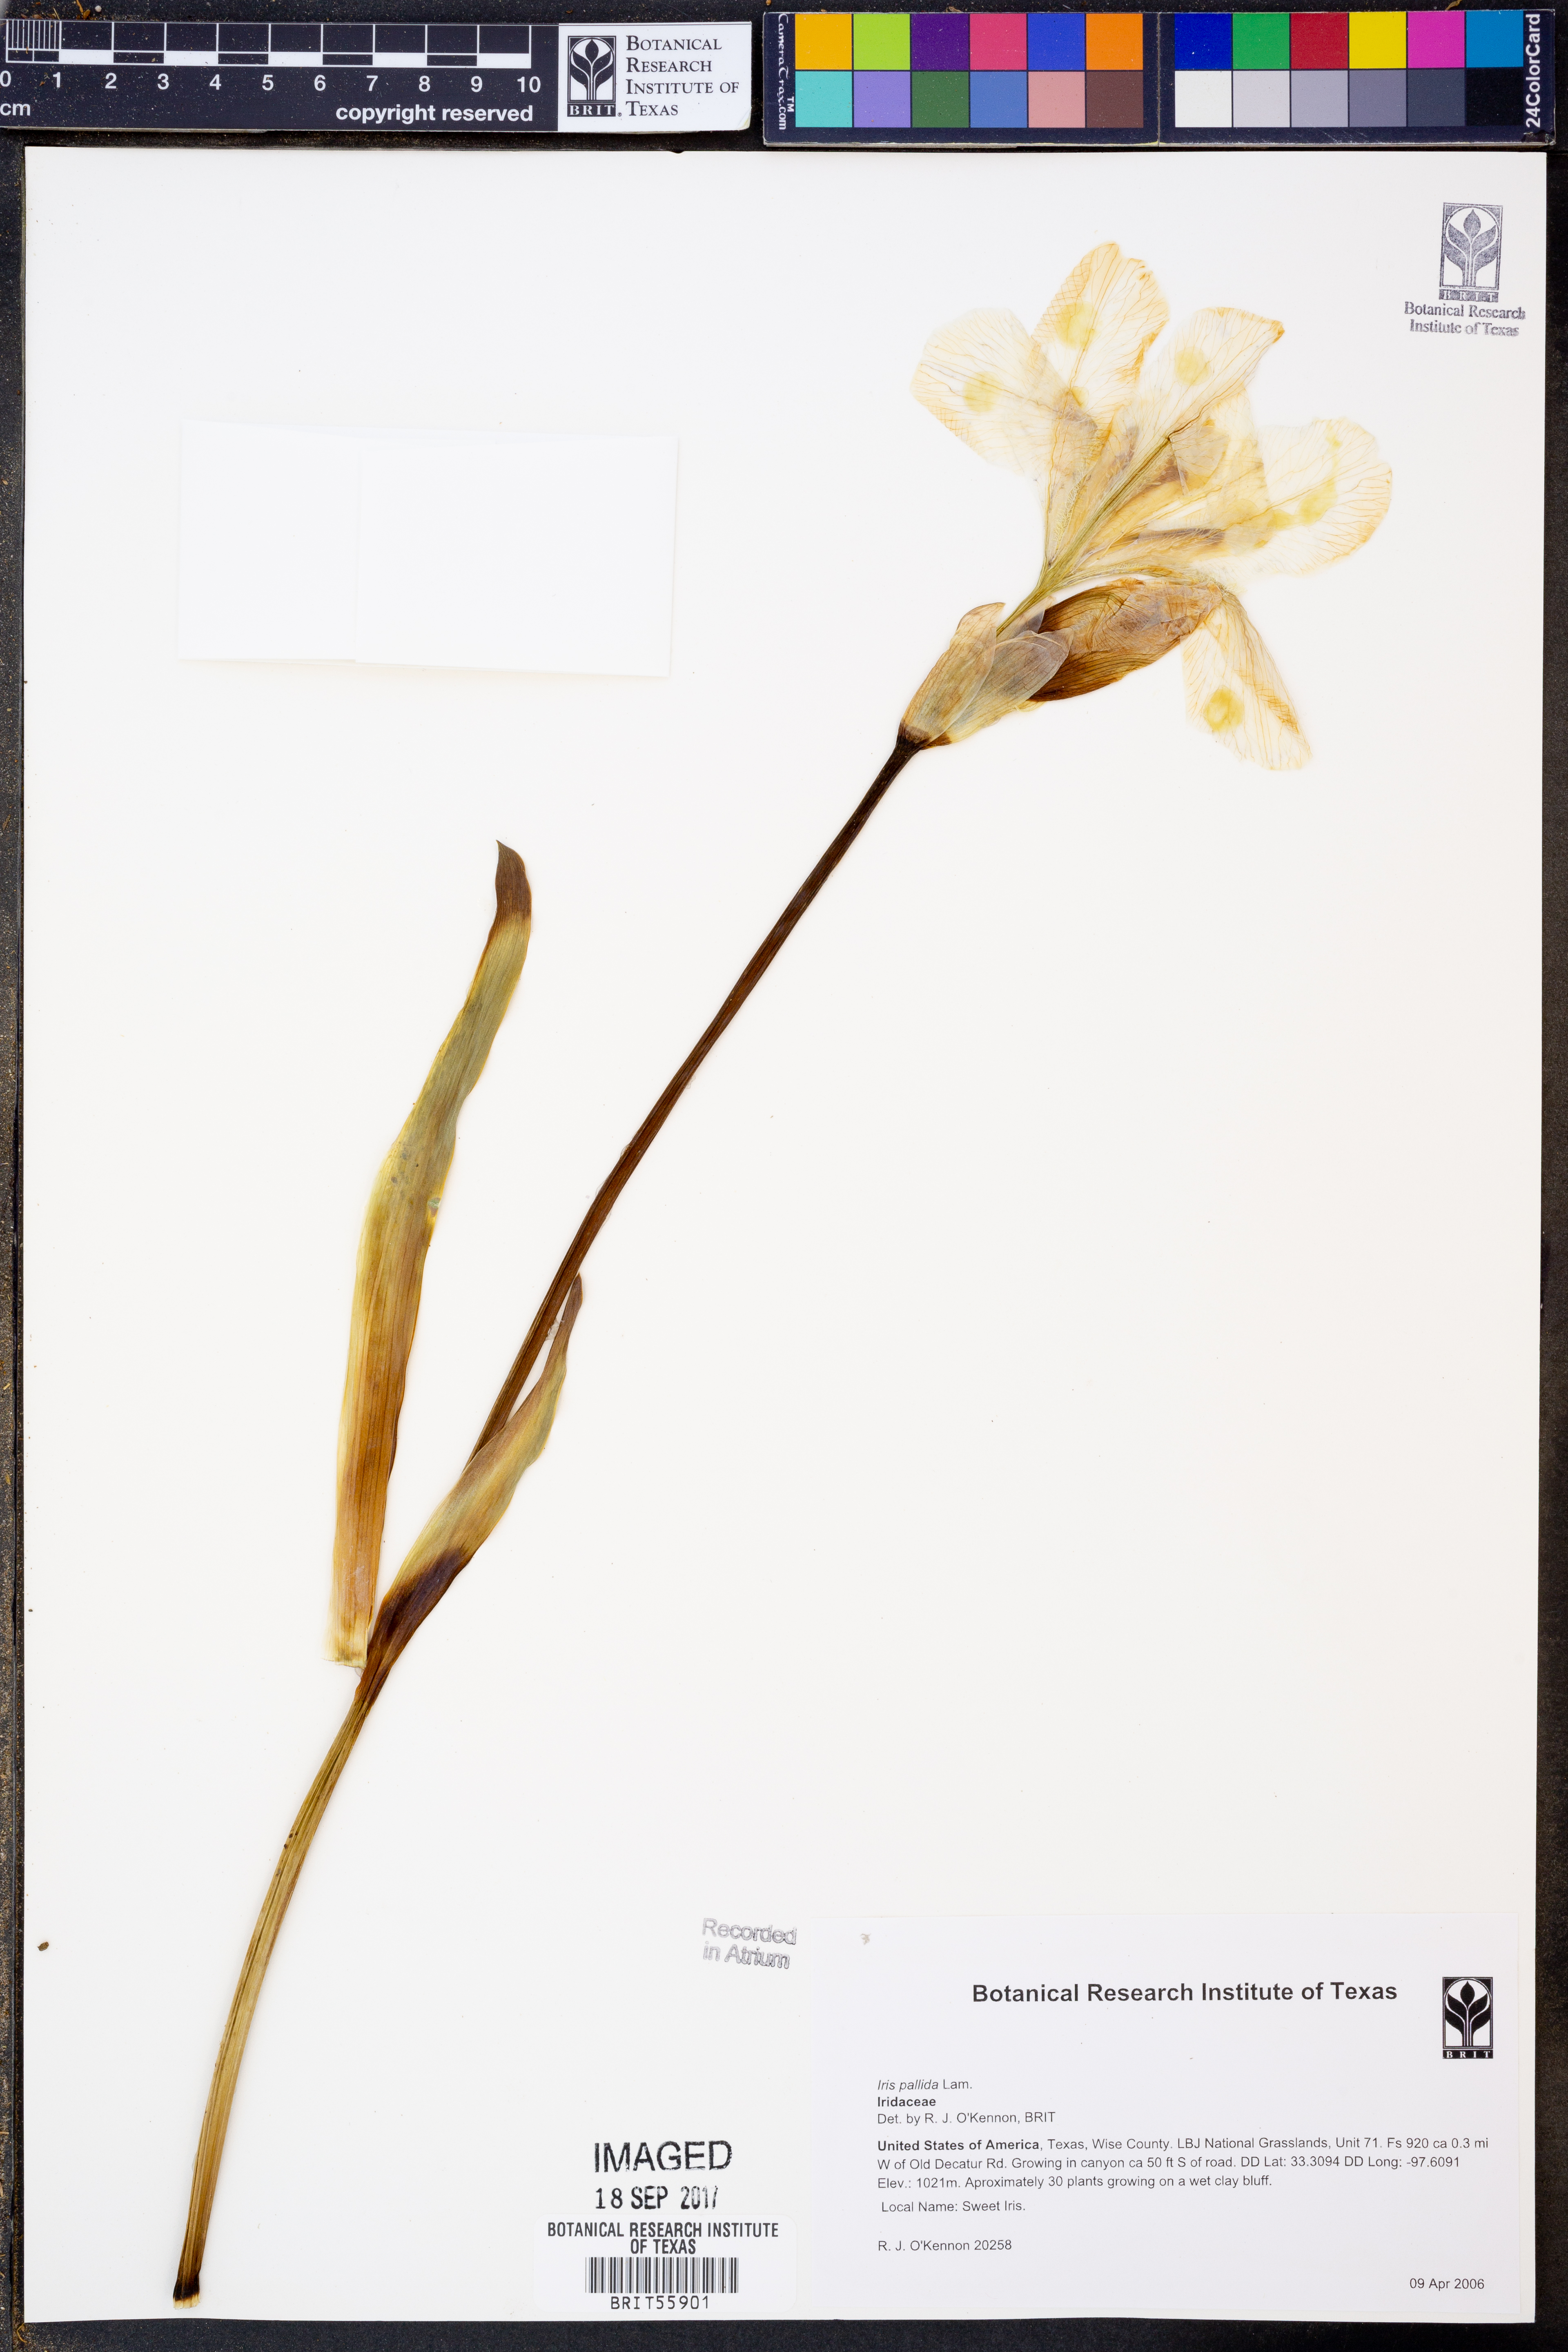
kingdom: Plantae
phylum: Tracheophyta
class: Liliopsida
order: Asparagales
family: Iridaceae
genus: Iris
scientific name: Iris pallida
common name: Sweet iris
